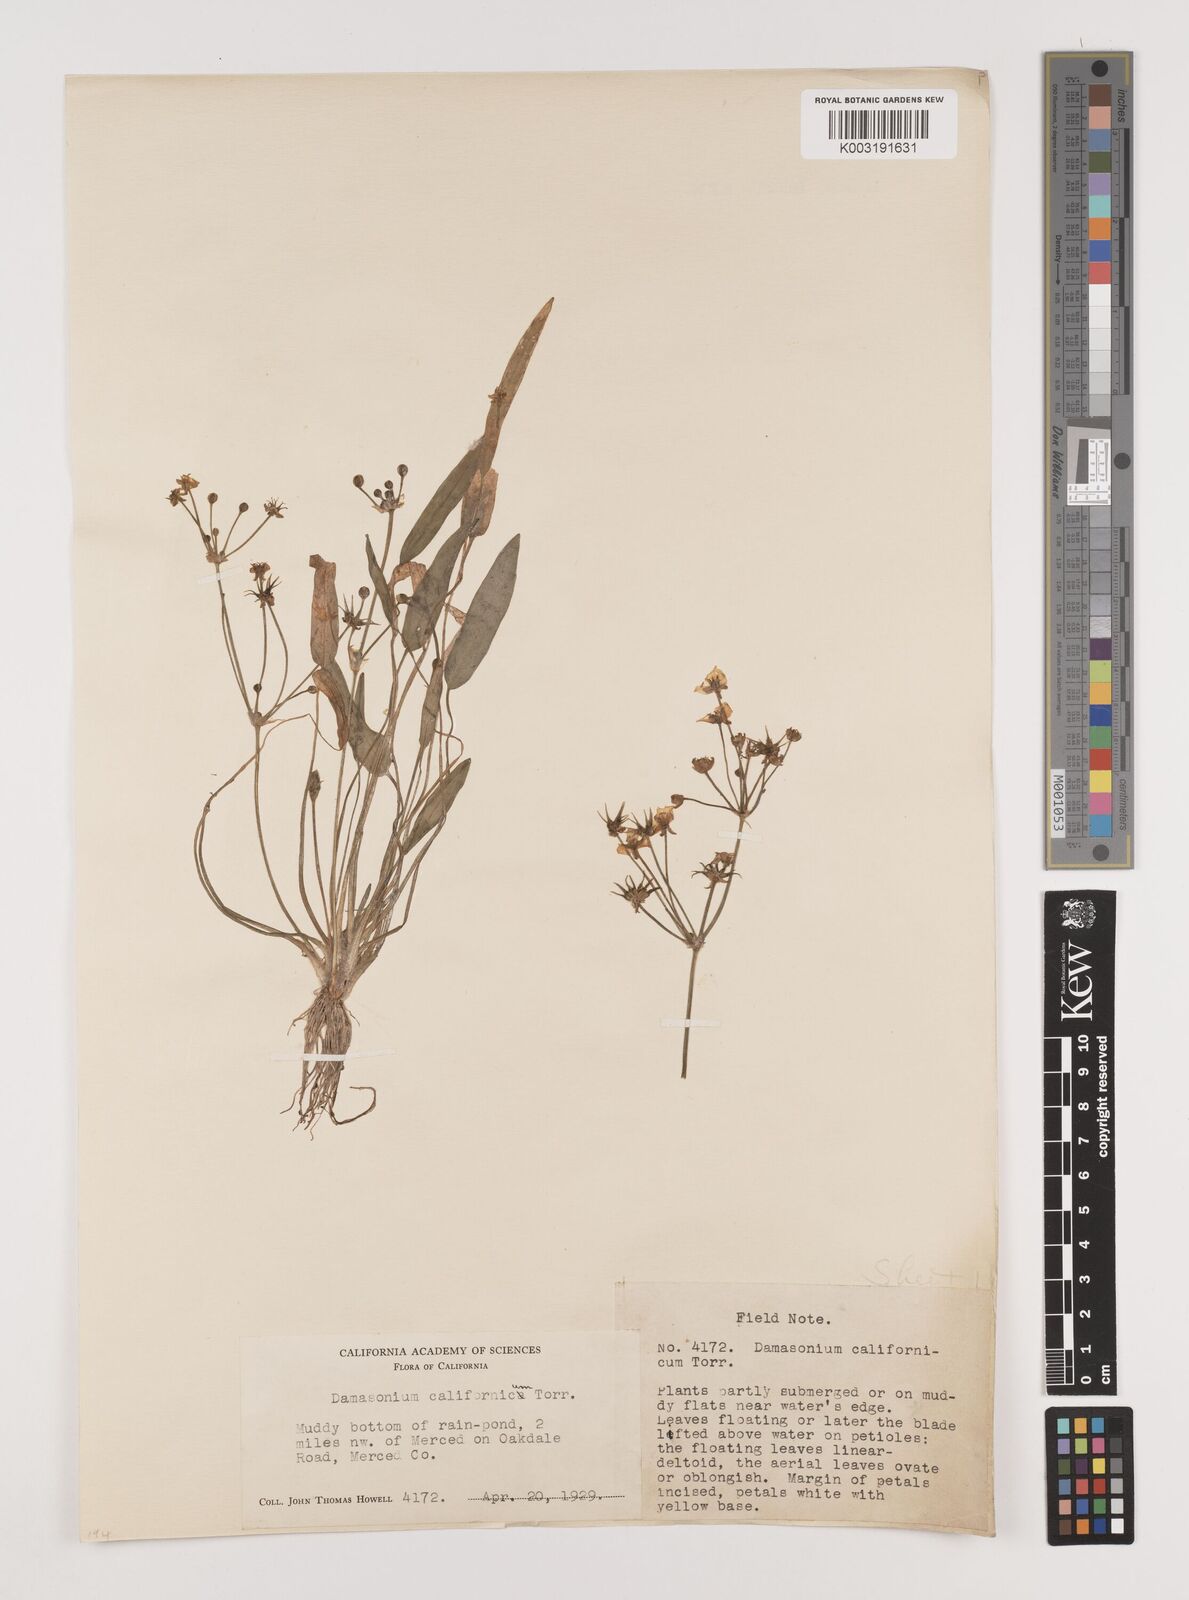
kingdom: Plantae
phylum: Tracheophyta
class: Liliopsida
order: Alismatales
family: Alismataceae
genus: Damasonium
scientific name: Damasonium
